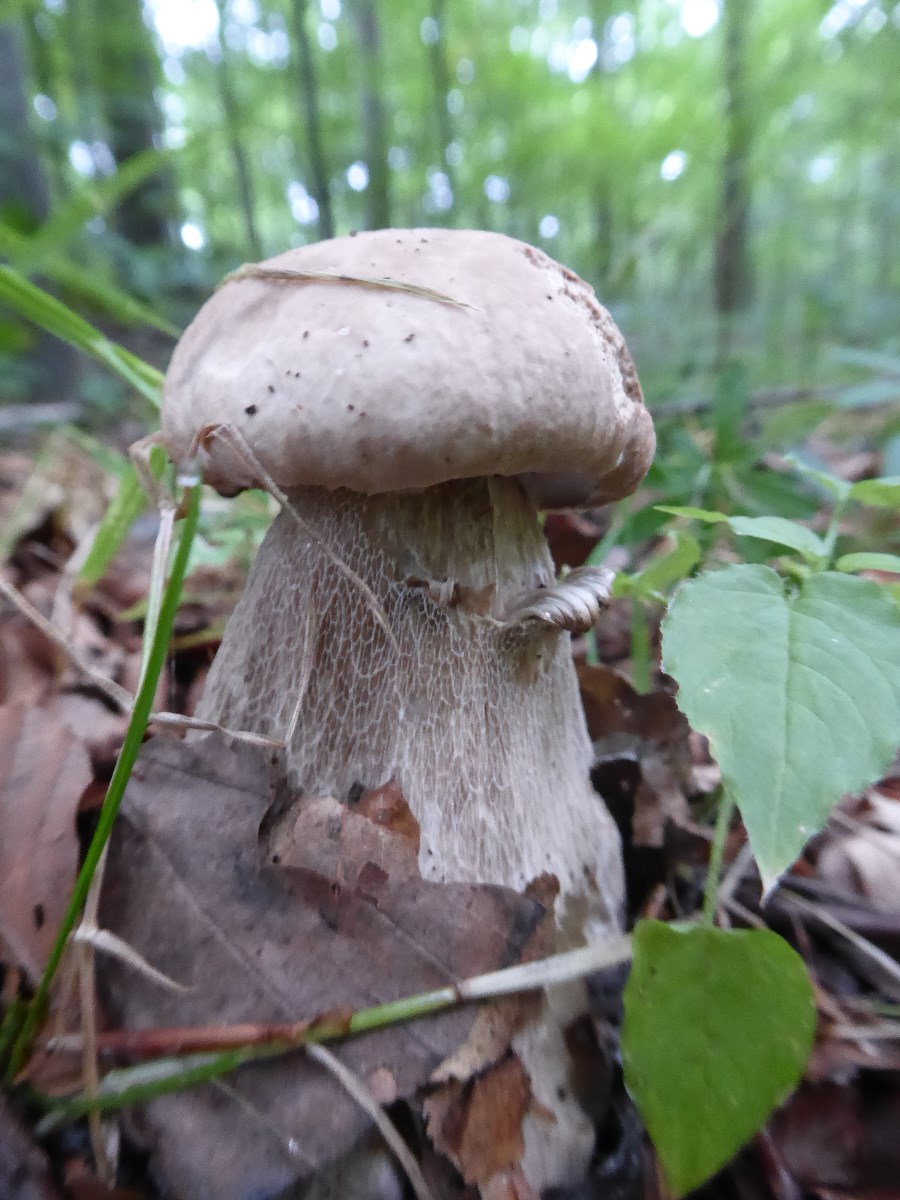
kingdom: Fungi
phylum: Basidiomycota
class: Agaricomycetes
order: Boletales
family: Boletaceae
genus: Boletus
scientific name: Boletus reticulatus
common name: sommer-rørhat
